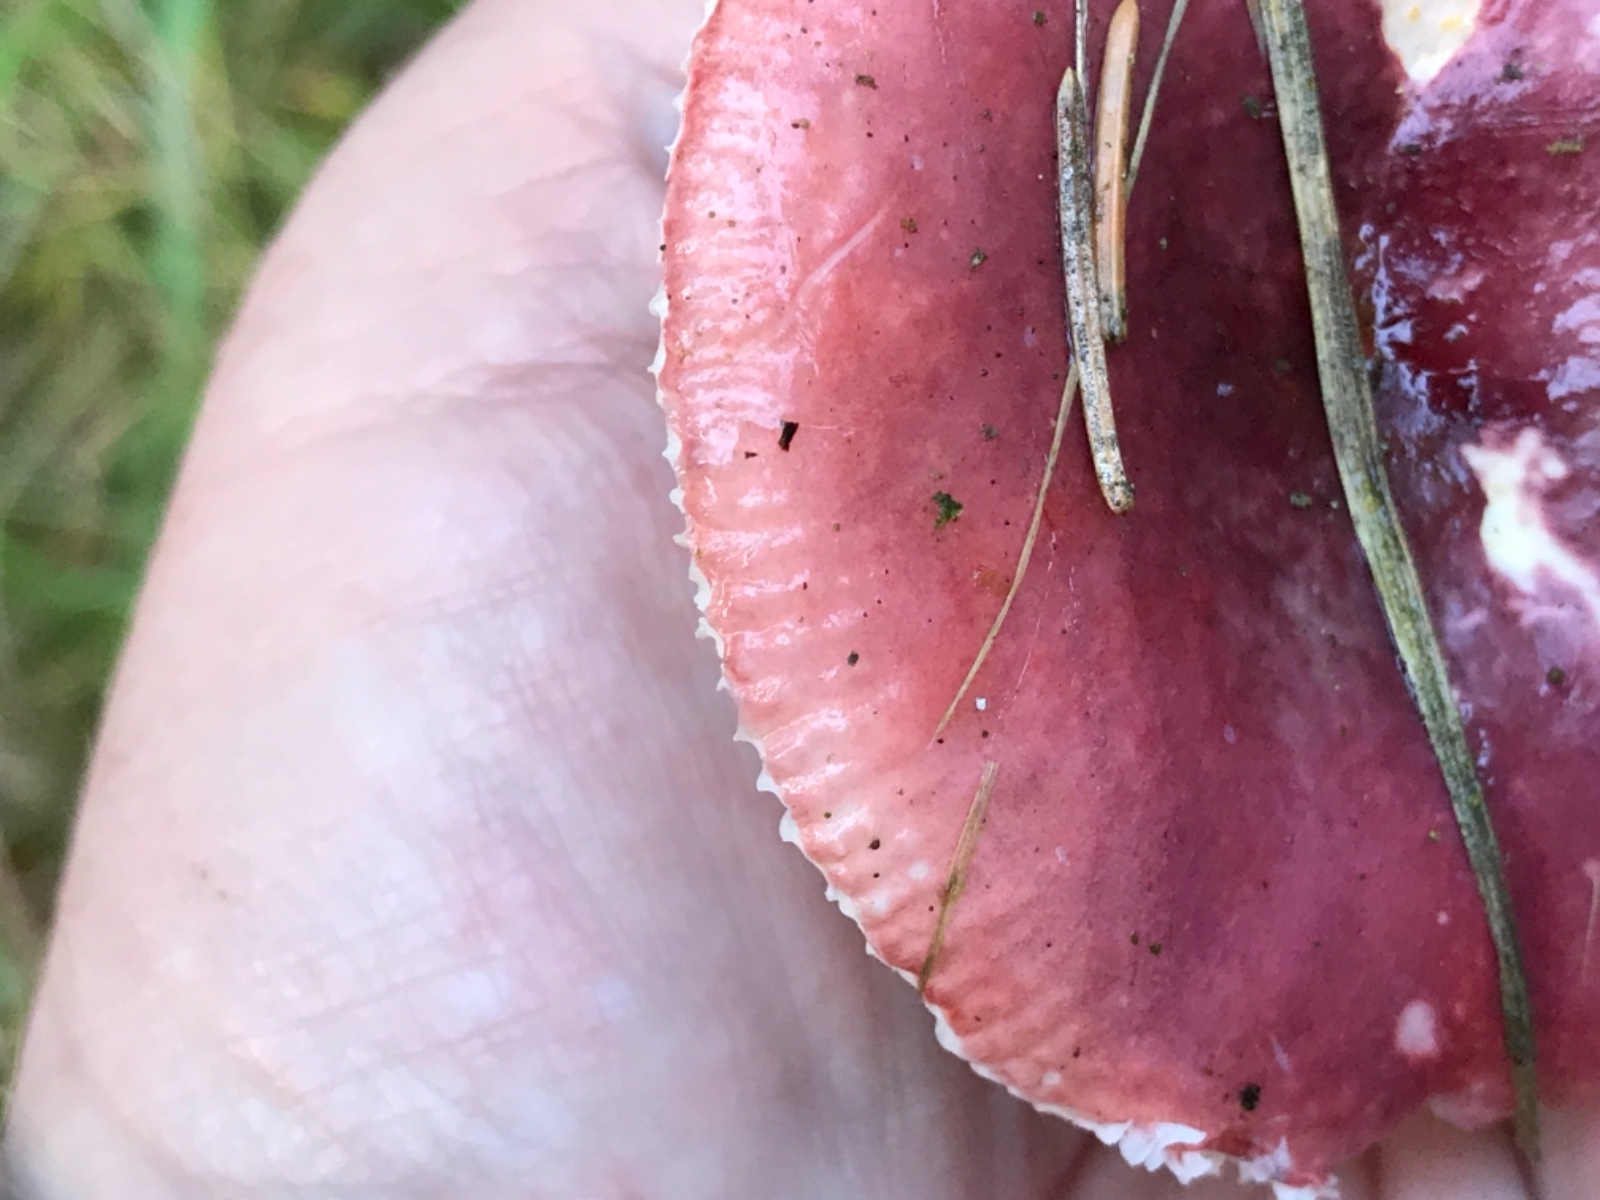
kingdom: Fungi
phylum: Basidiomycota
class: Agaricomycetes
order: Russulales
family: Russulaceae
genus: Russula
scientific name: Russula fragilis
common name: Fragile brittlegill
